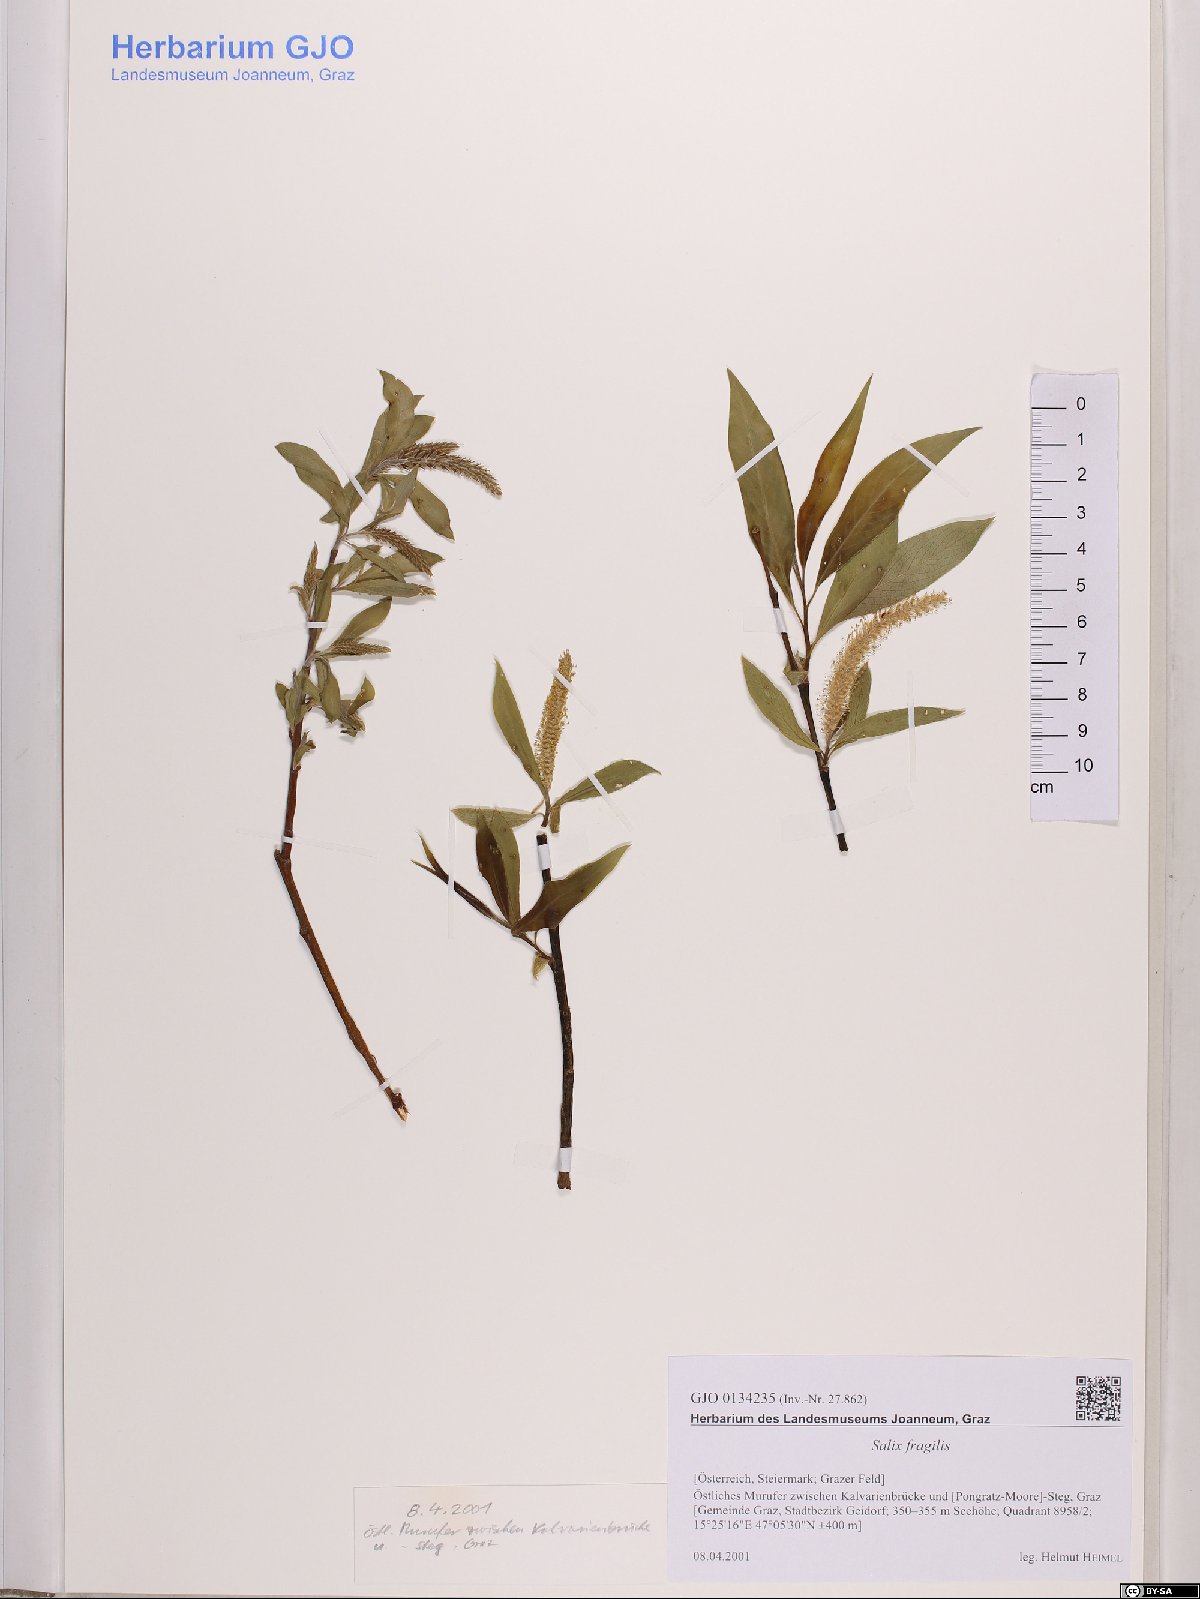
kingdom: Plantae
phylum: Tracheophyta
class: Magnoliopsida
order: Malpighiales
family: Salicaceae
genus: Salix
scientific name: Salix fragilis
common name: Crack willow
